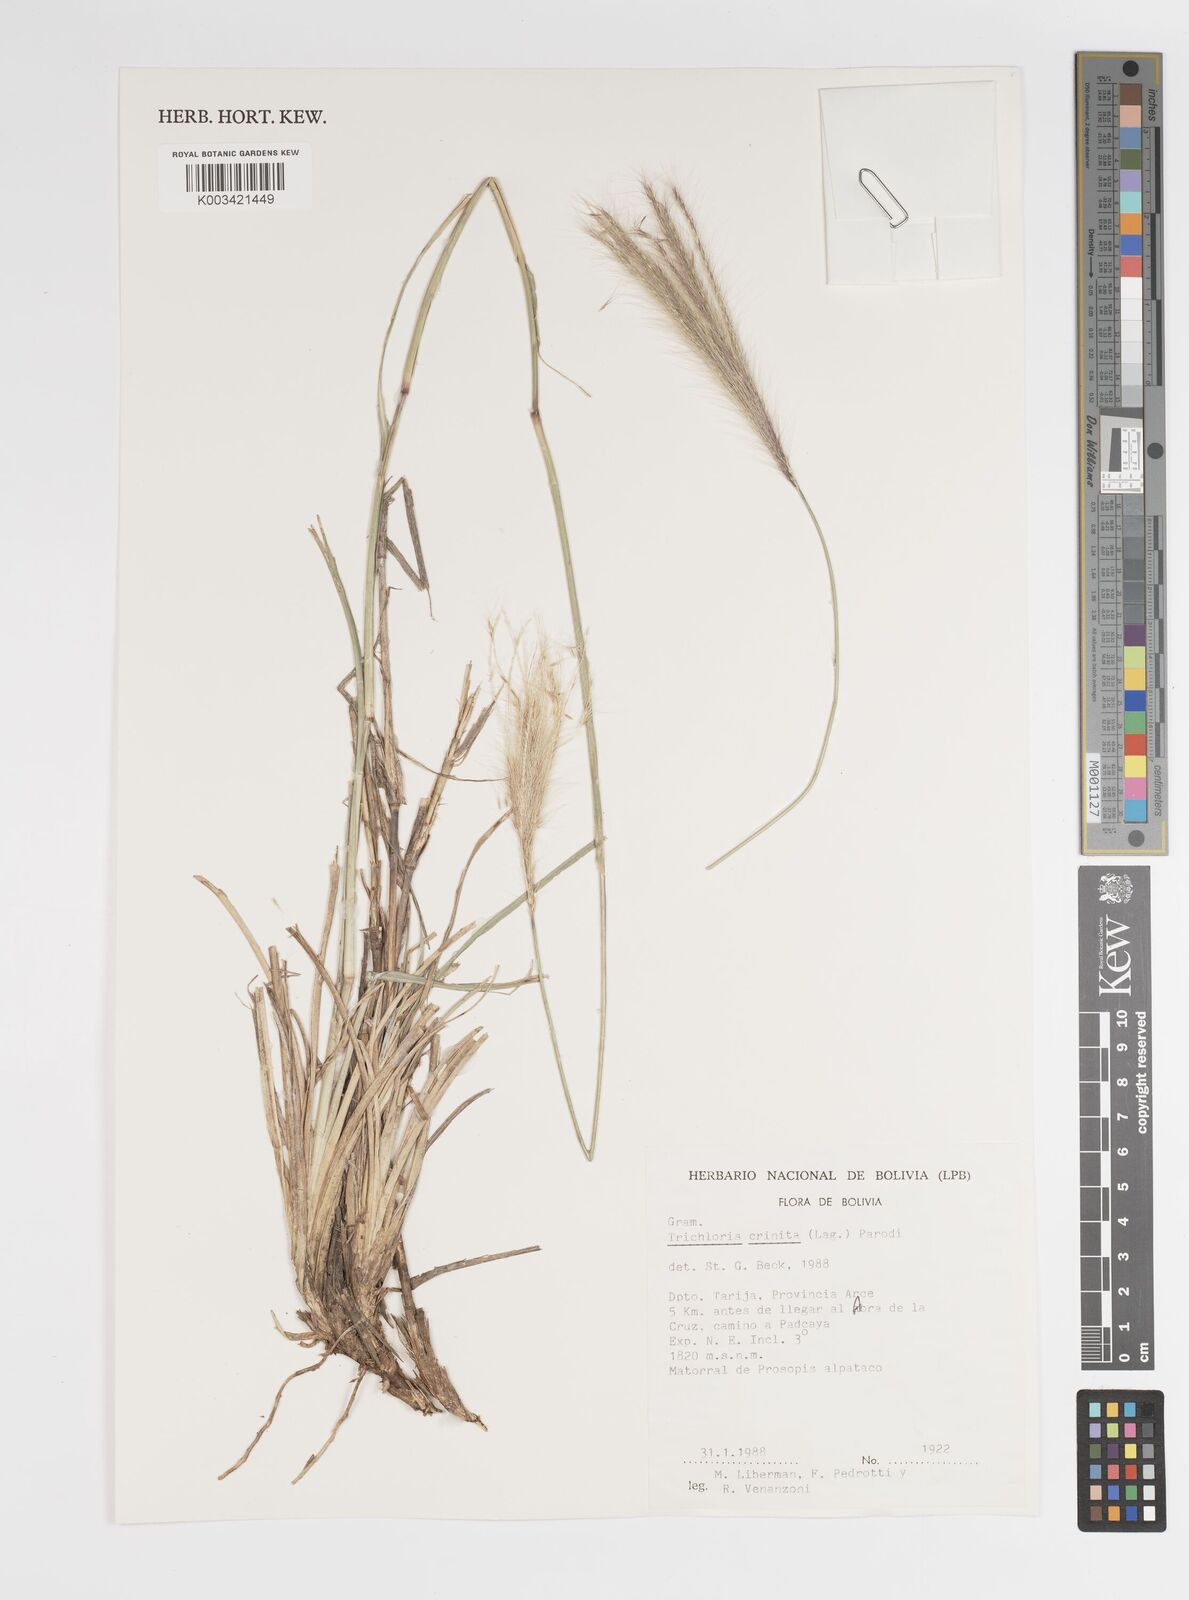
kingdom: Plantae
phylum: Tracheophyta
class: Liliopsida
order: Poales
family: Poaceae
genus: Leptochloa
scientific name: Leptochloa crinita
